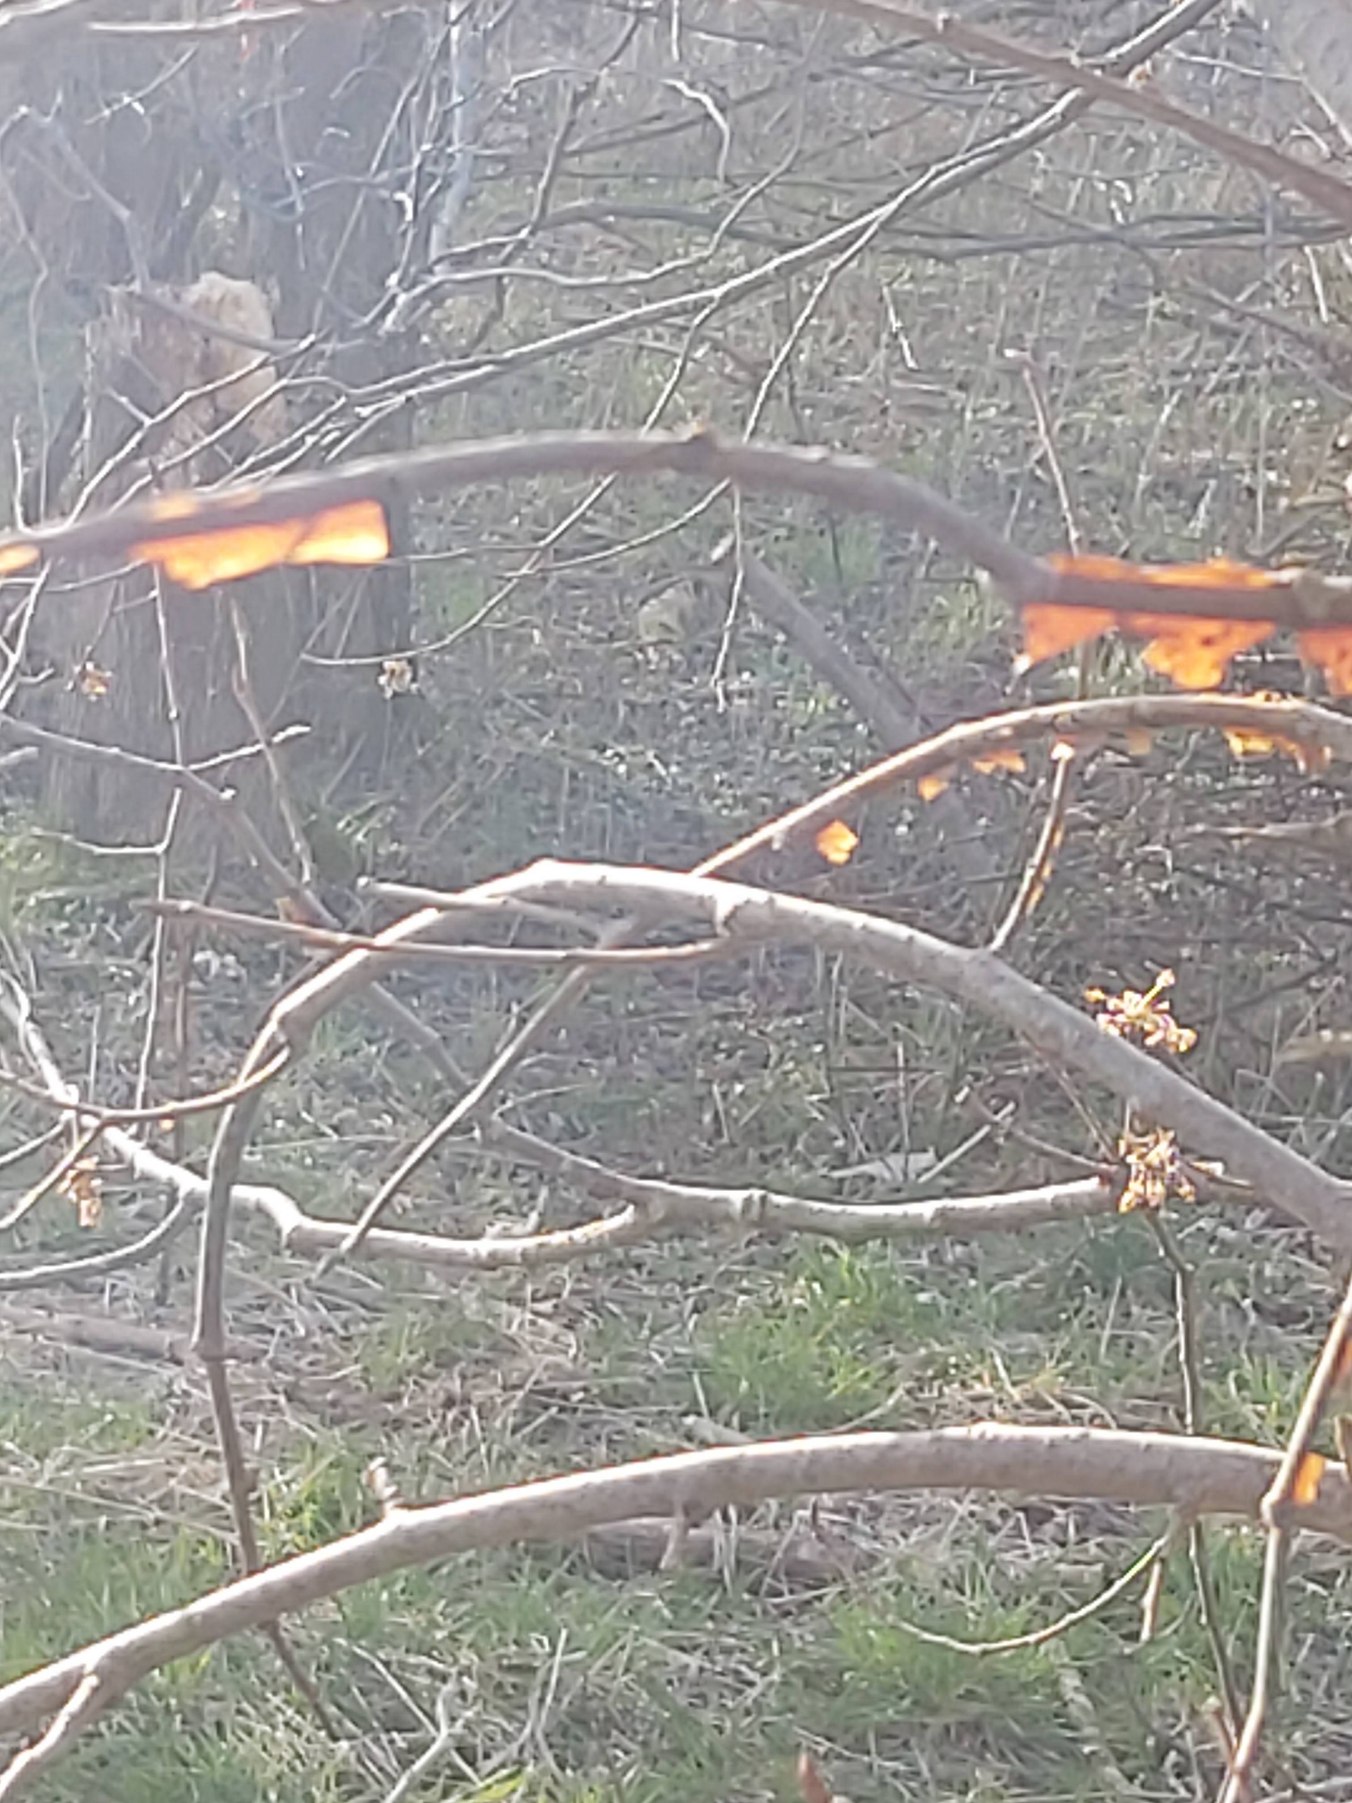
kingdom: Plantae
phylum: Tracheophyta
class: Magnoliopsida
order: Rosales
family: Ulmaceae
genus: Ulmus
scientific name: Ulmus laevis
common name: Skærm-elm
